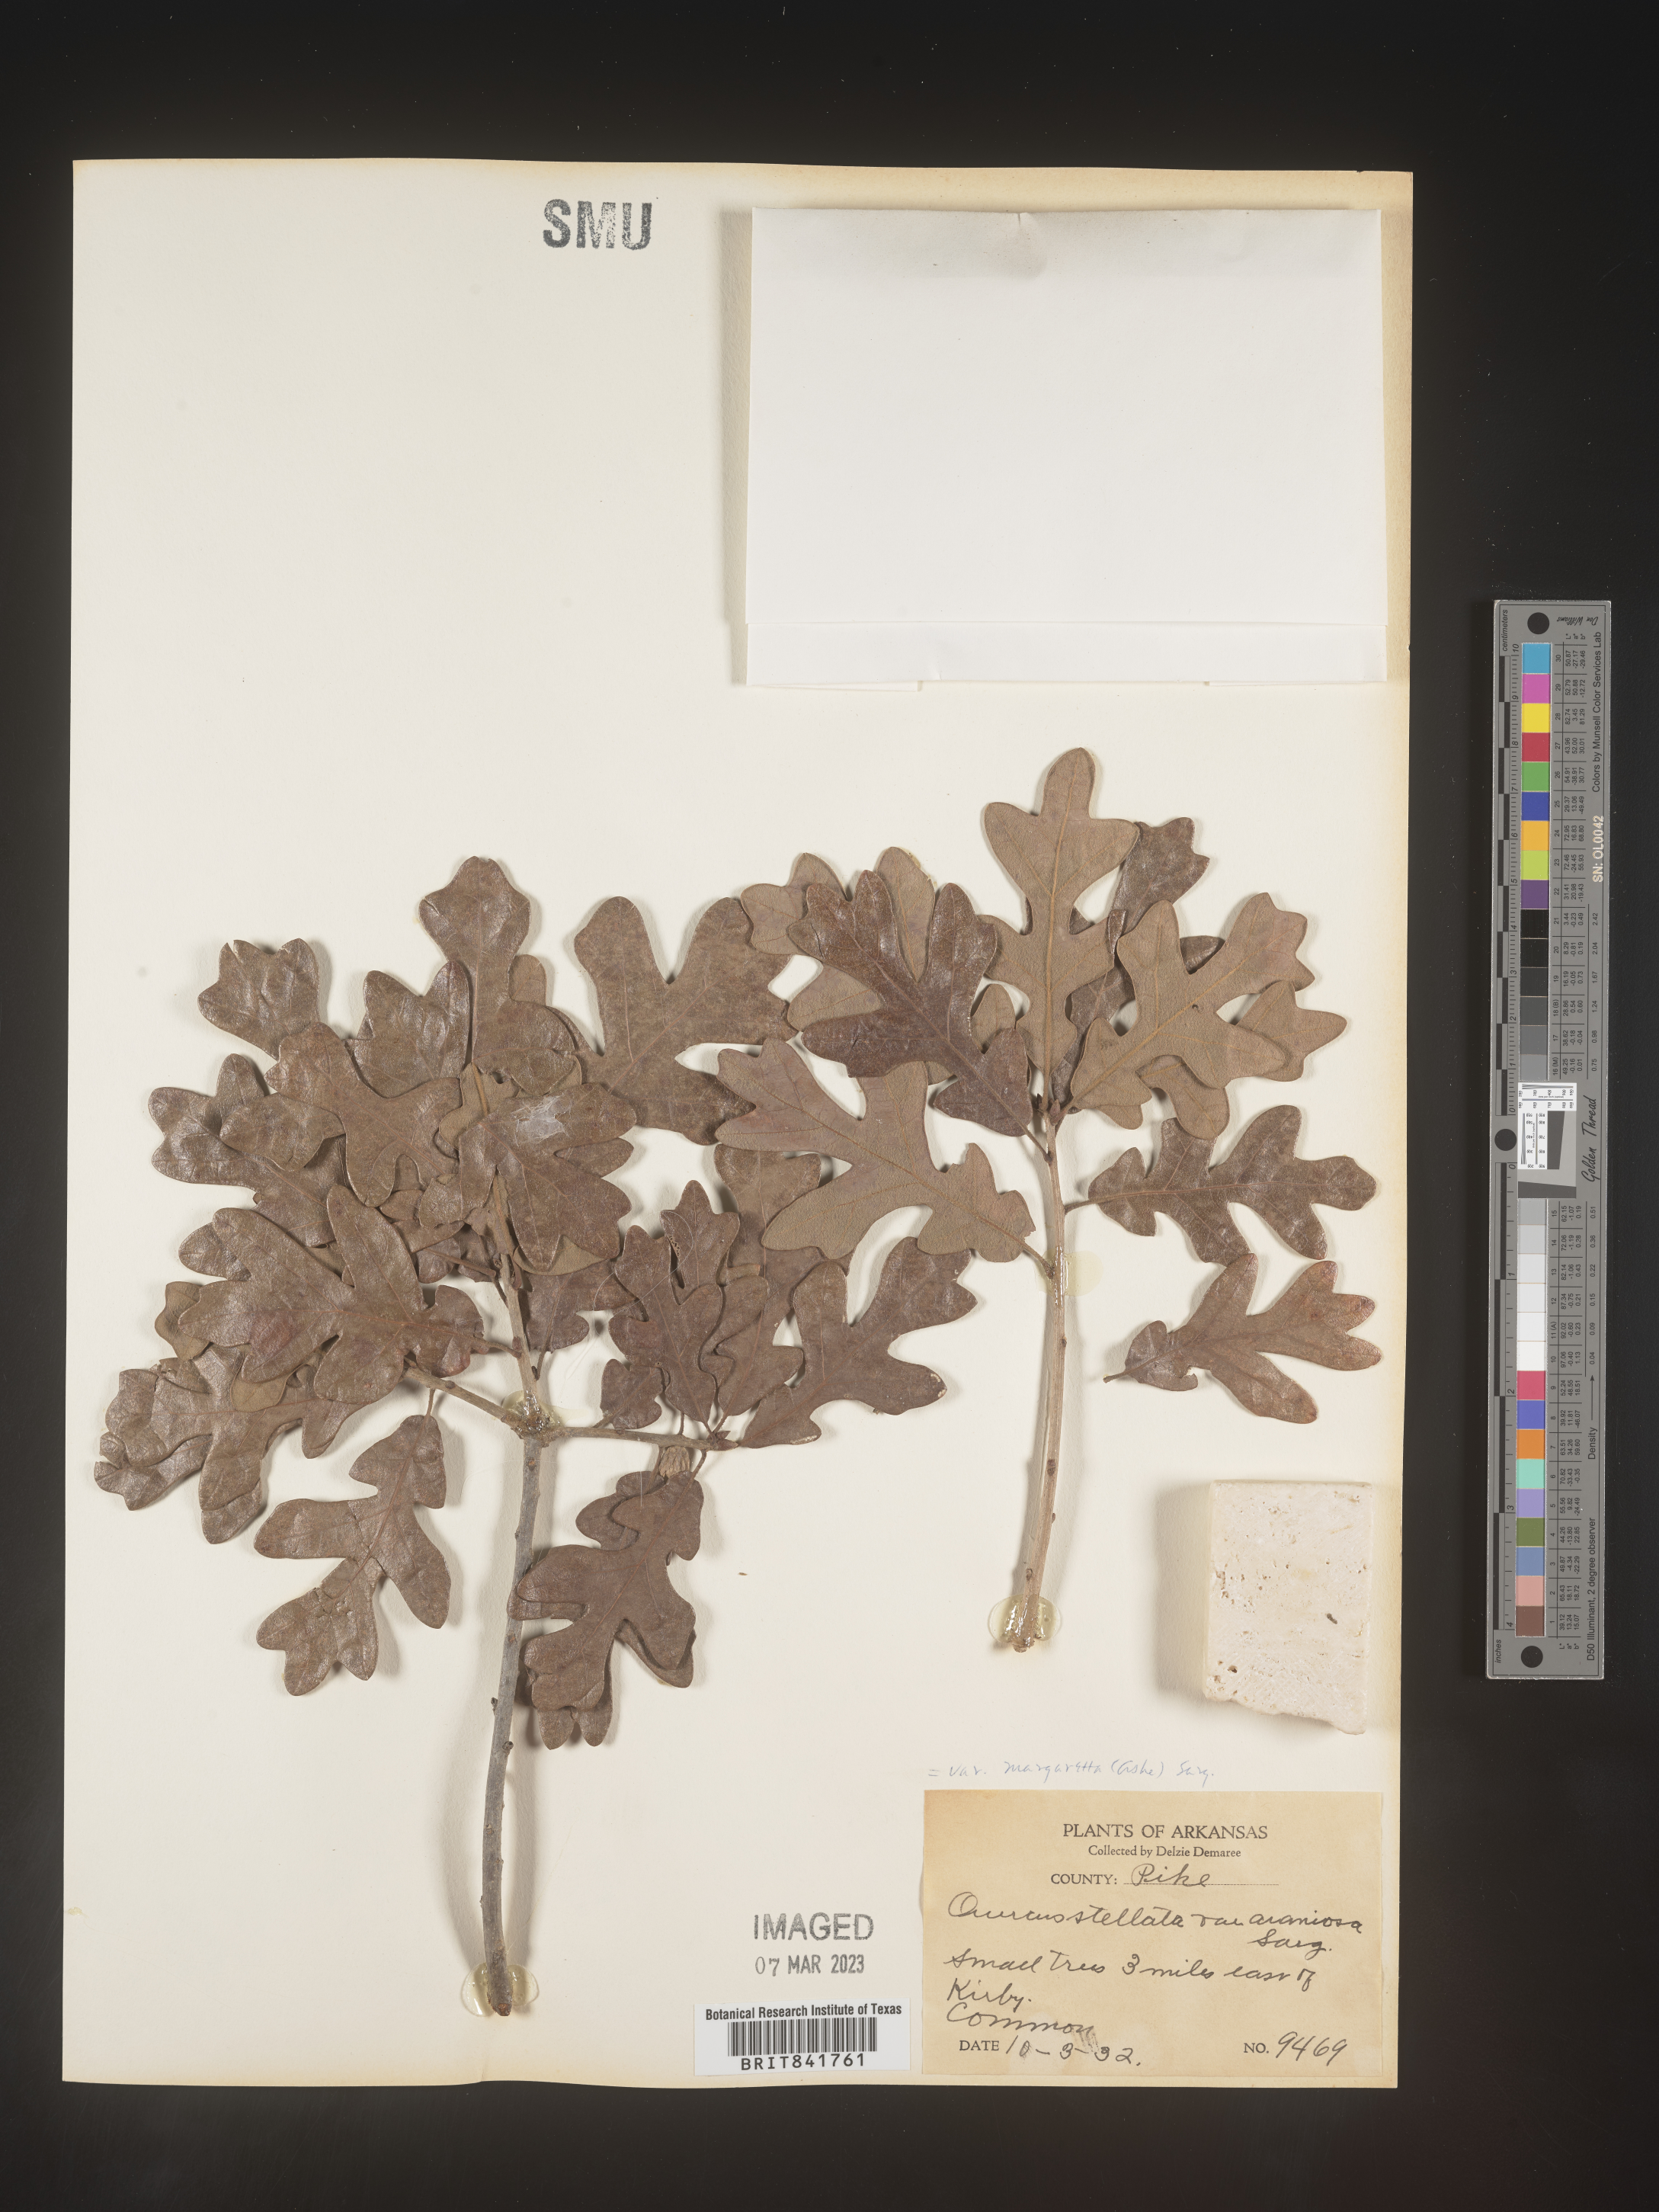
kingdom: Plantae
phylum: Tracheophyta
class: Magnoliopsida
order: Fagales
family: Fagaceae
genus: Quercus
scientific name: Quercus stellata
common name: Post oak
